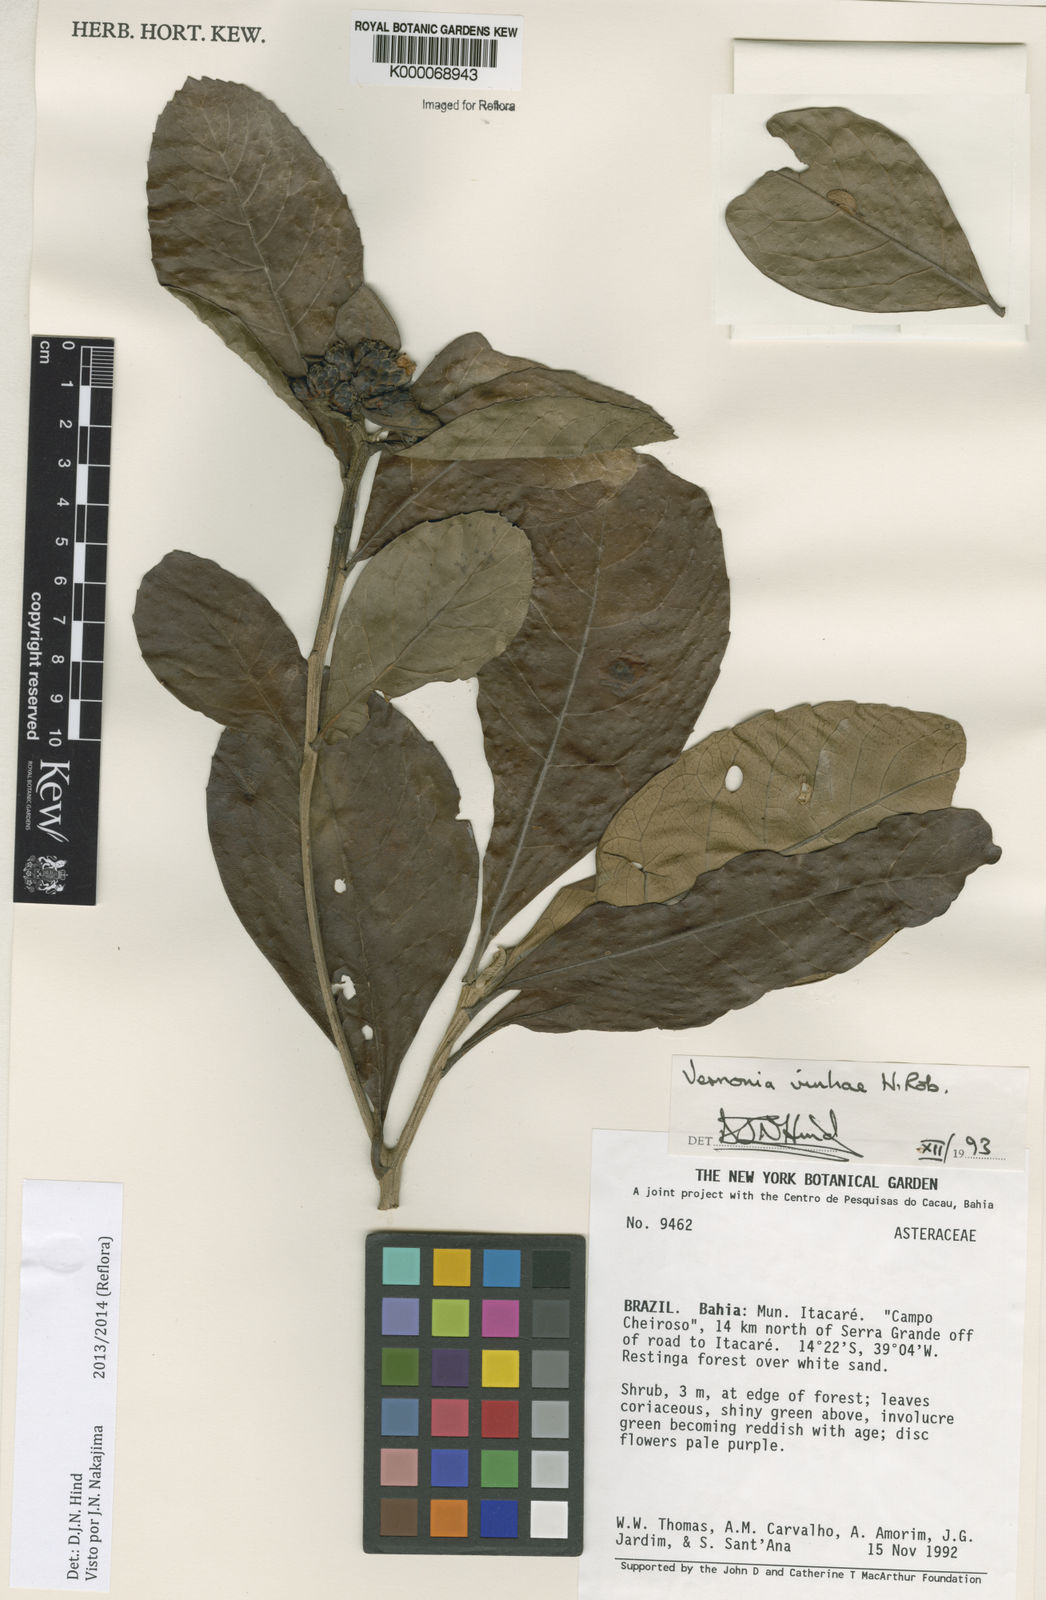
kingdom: Plantae
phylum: Tracheophyta
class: Magnoliopsida
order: Asterales
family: Asteraceae
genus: Vernonanthura
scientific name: Vernonanthura vinhae
